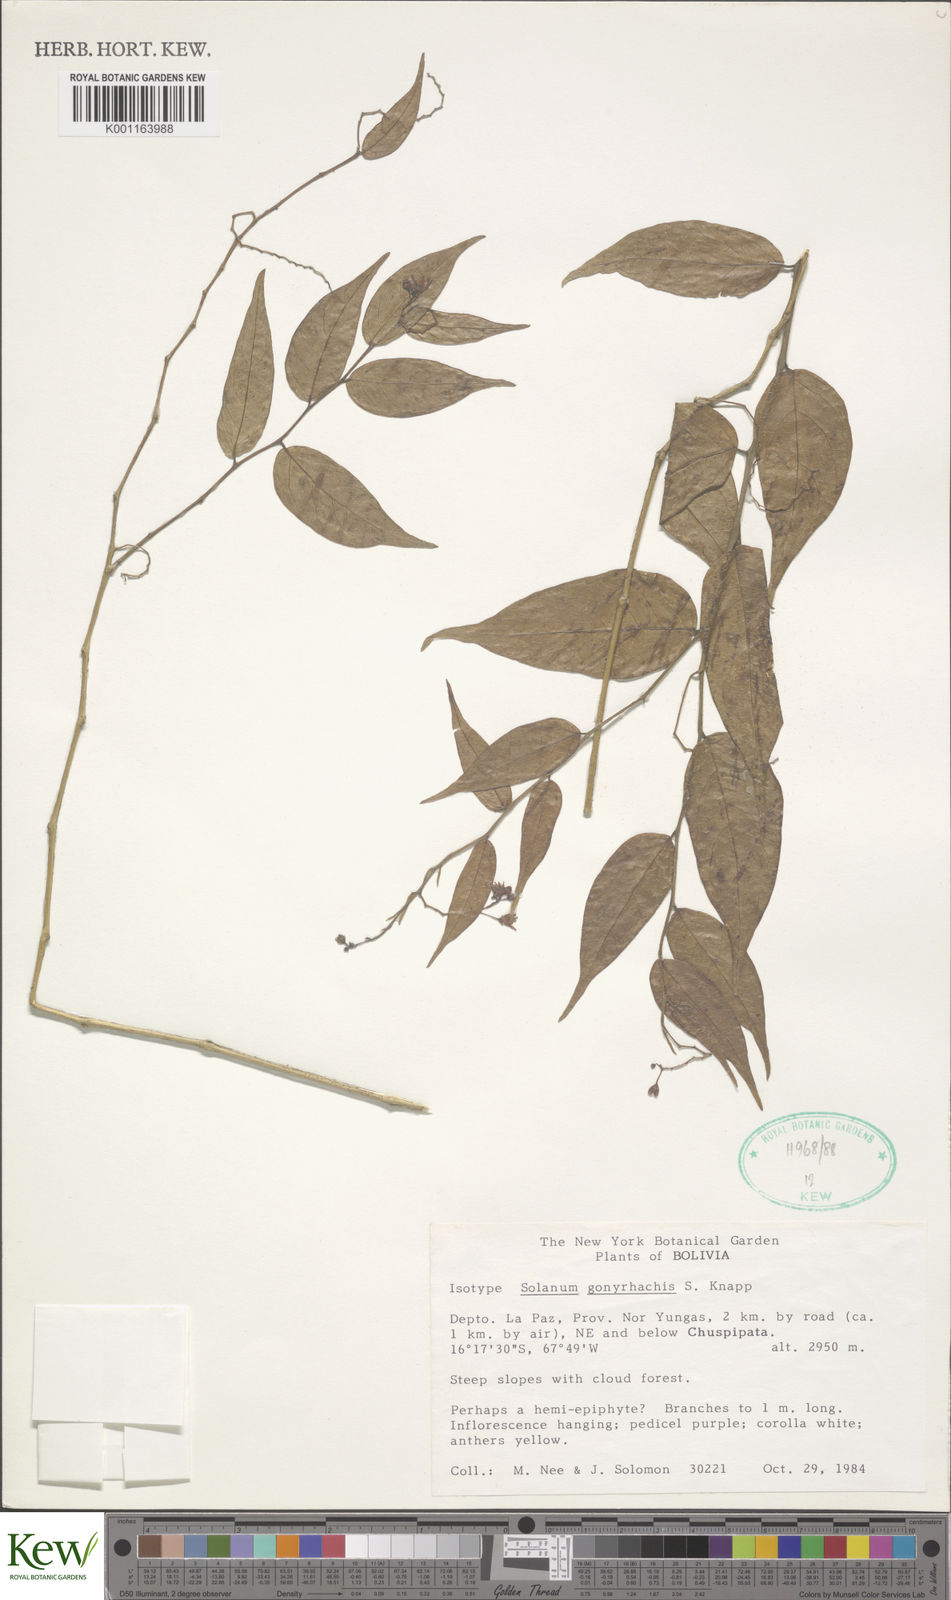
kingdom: Plantae
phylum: Tracheophyta
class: Magnoliopsida
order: Solanales
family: Solanaceae
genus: Solanum
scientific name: Solanum gonyrhachis
